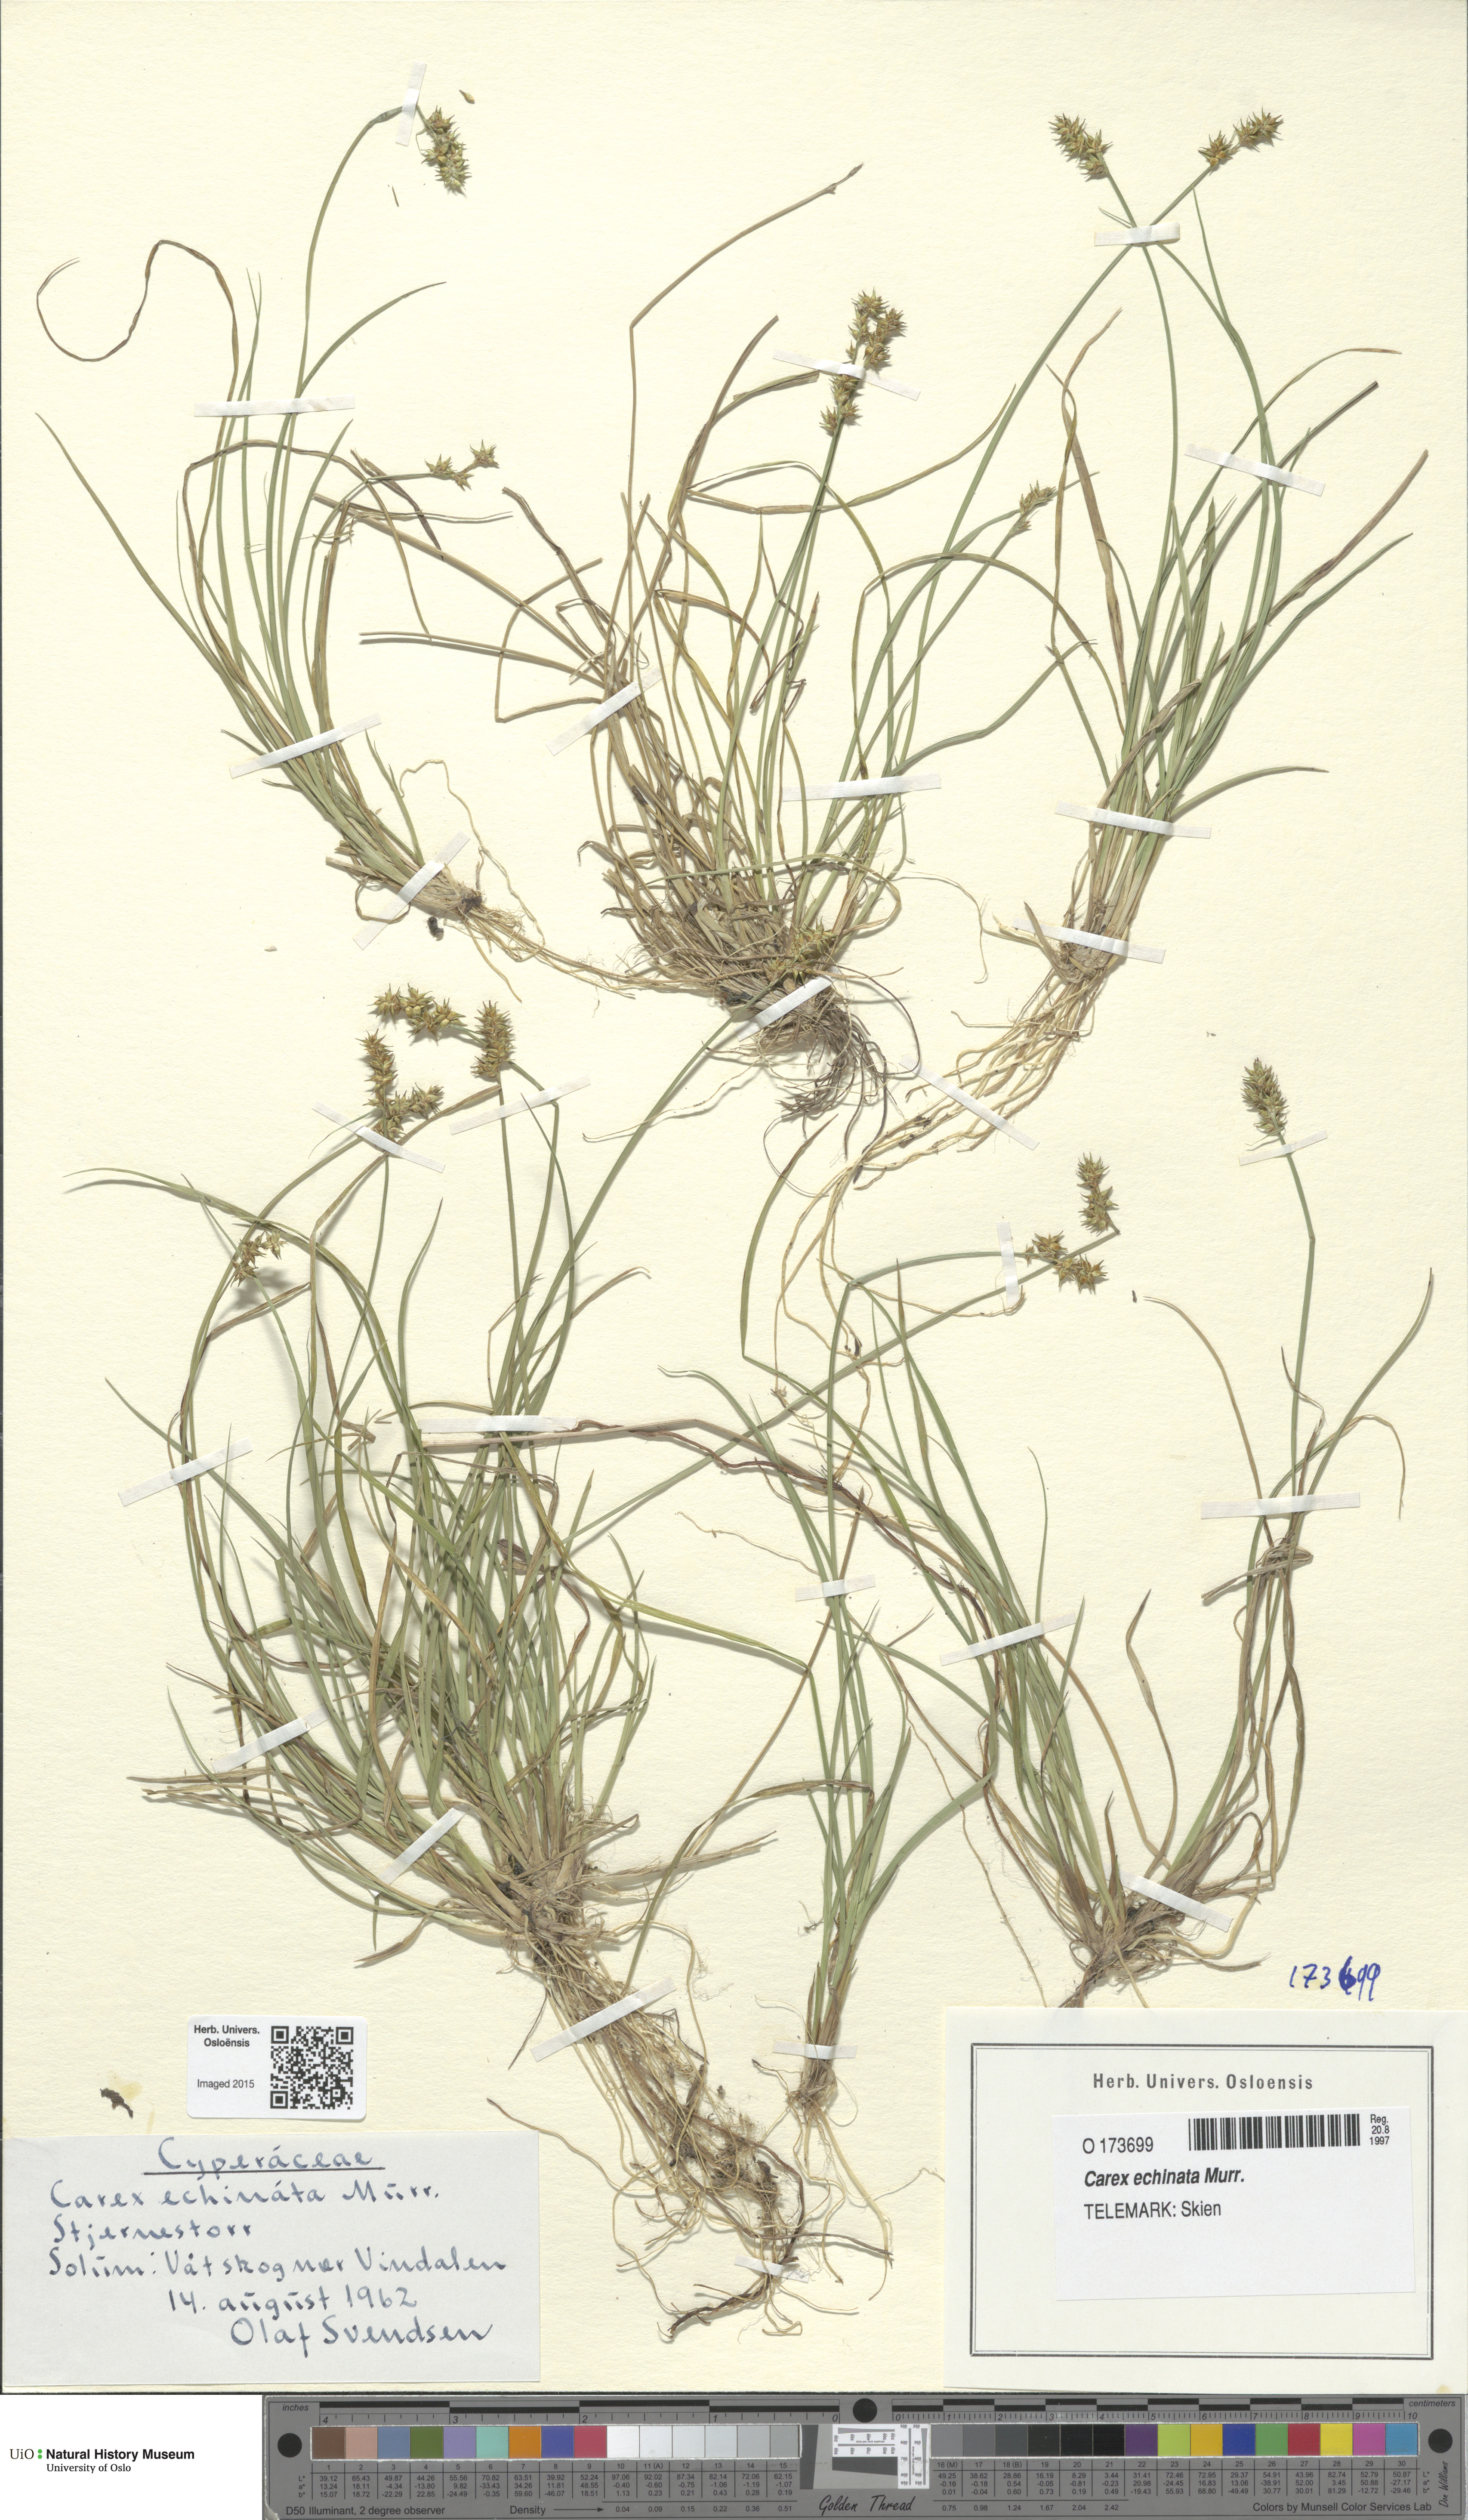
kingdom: Plantae
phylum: Tracheophyta
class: Liliopsida
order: Poales
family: Cyperaceae
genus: Carex
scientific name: Carex echinata
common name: Star sedge
